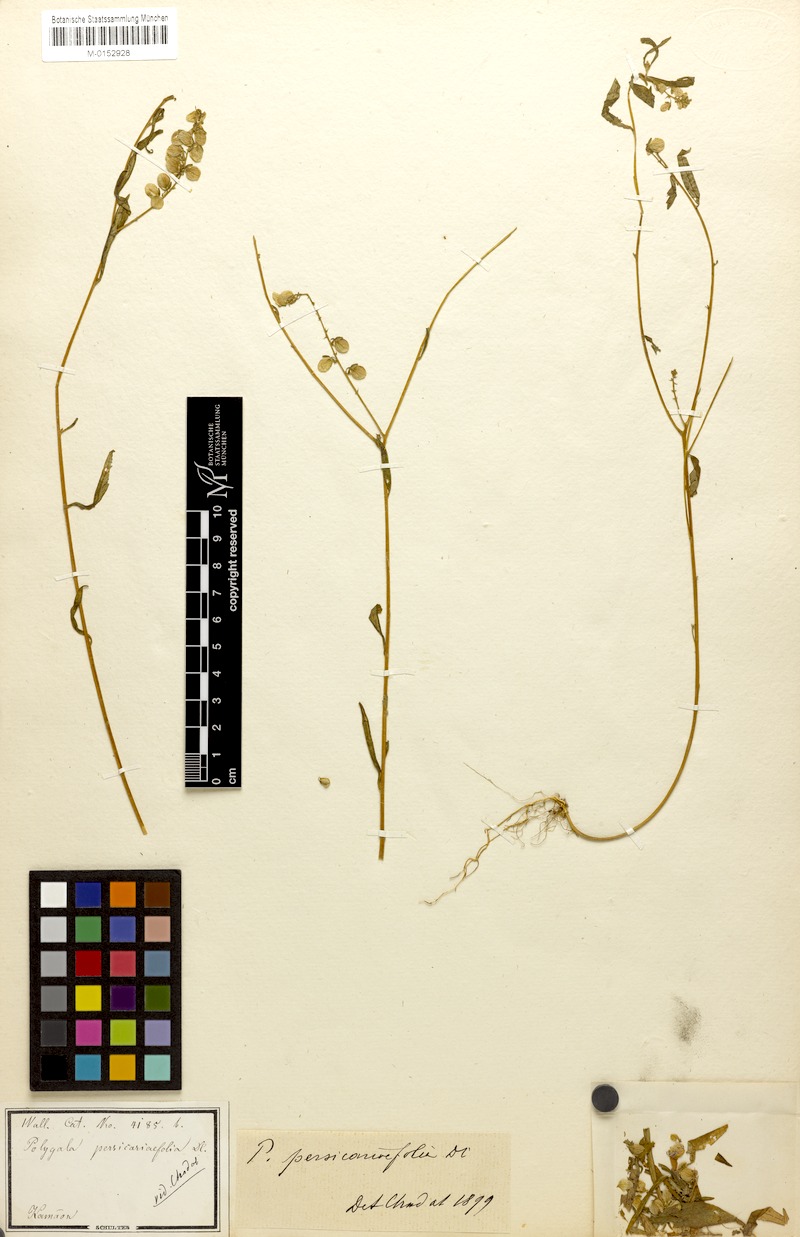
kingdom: Plantae
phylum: Tracheophyta
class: Magnoliopsida
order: Fabales
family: Polygalaceae
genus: Polygala
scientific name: Polygala persicariifolia
